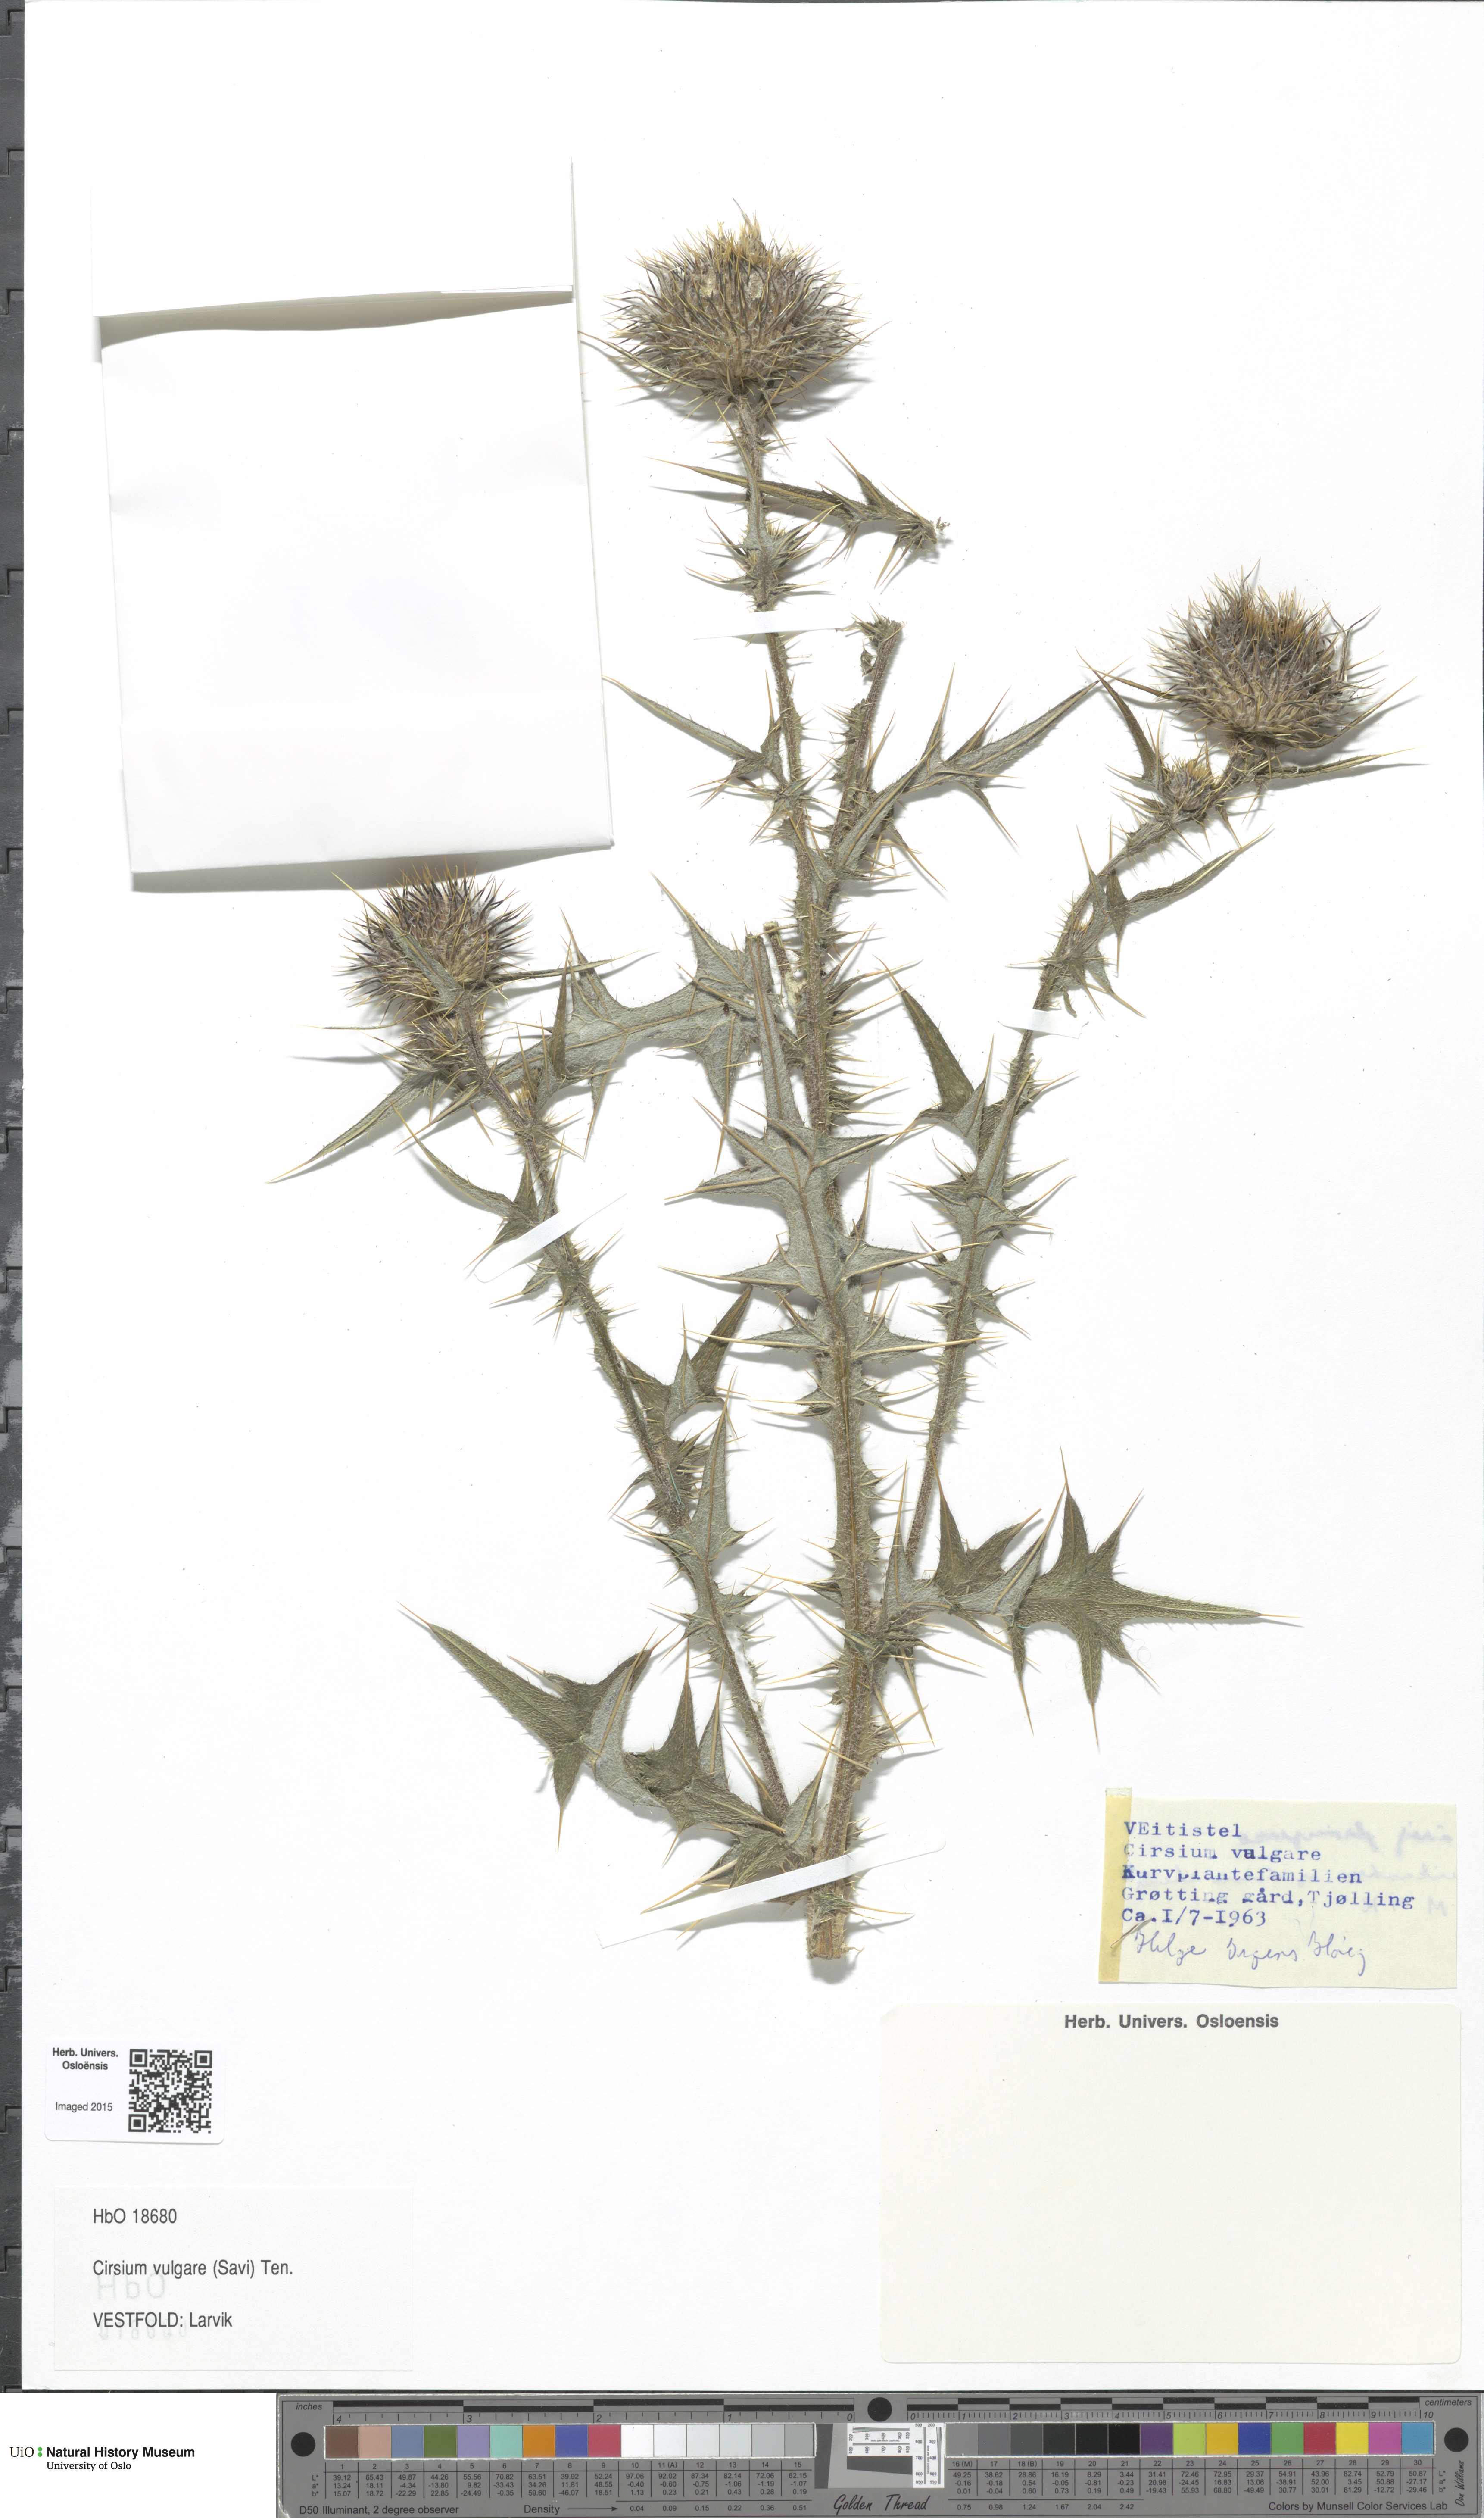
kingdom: Plantae
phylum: Tracheophyta
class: Magnoliopsida
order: Asterales
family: Asteraceae
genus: Cirsium
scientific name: Cirsium vulgare
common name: Bull thistle
